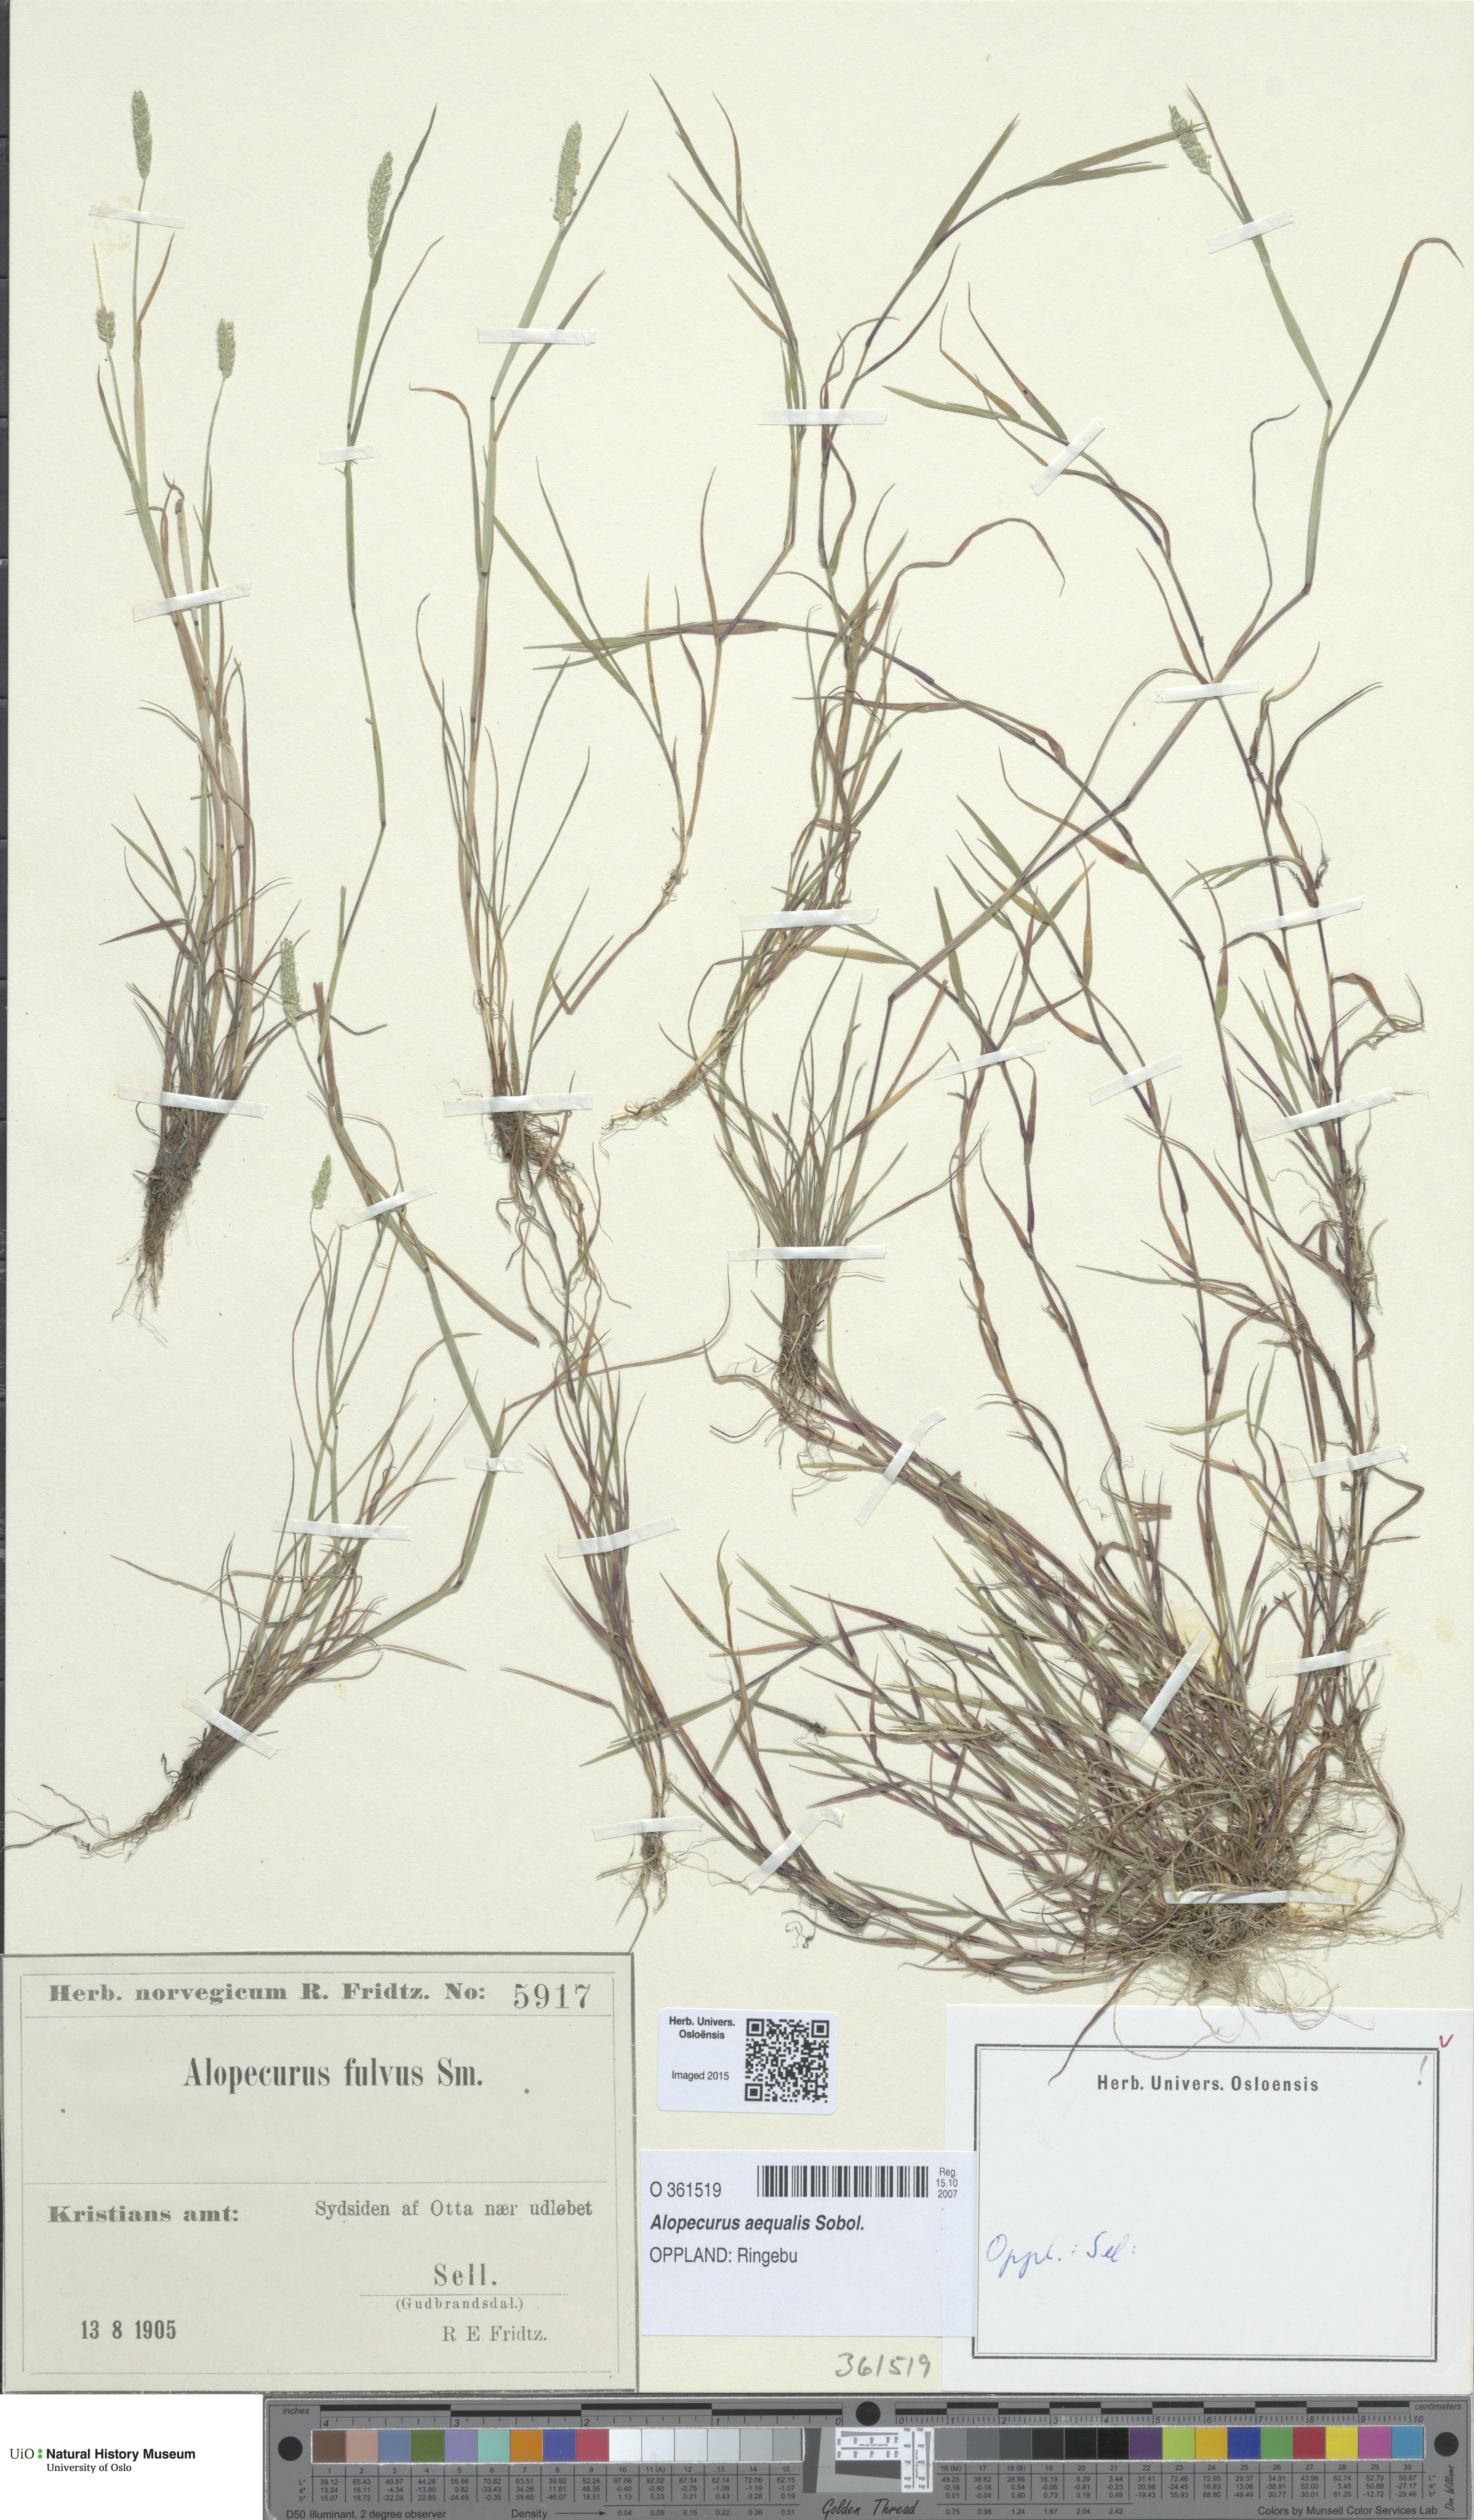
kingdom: Plantae
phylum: Tracheophyta
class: Liliopsida
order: Poales
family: Poaceae
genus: Alopecurus
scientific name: Alopecurus aequalis
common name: Orange foxtail
